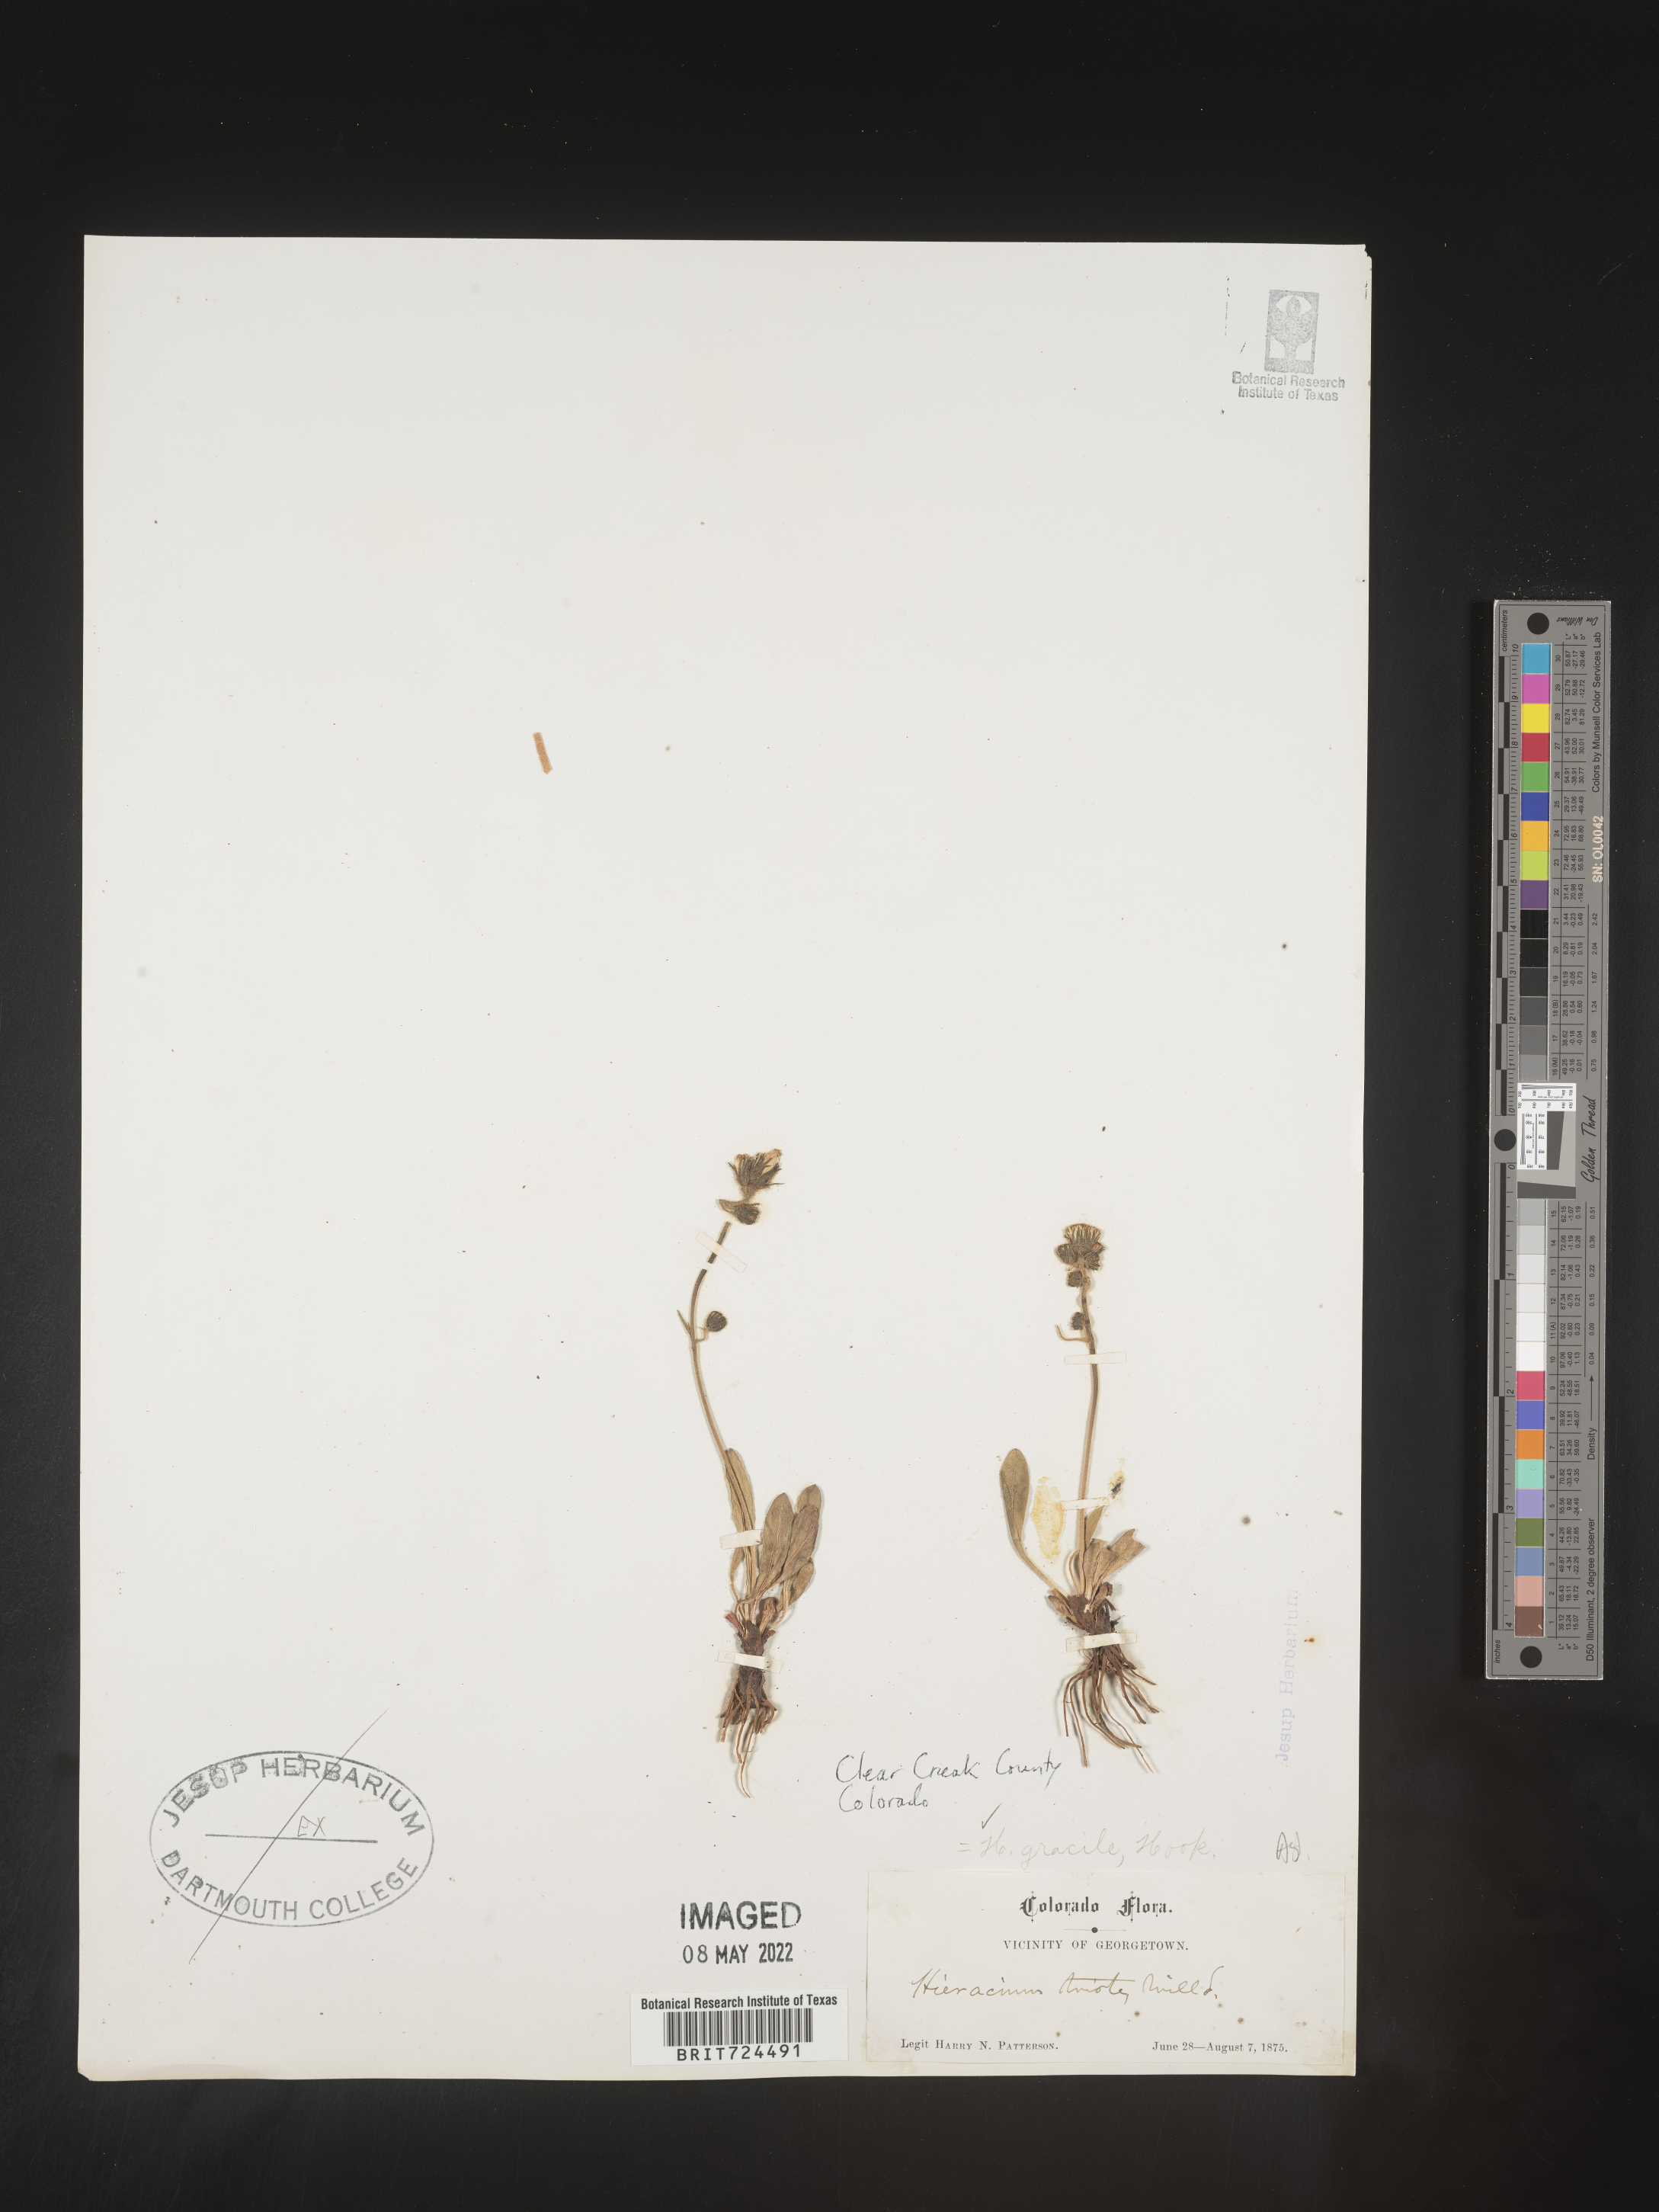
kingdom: Plantae
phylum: Tracheophyta
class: Magnoliopsida
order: Asterales
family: Asteraceae
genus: Hieracium
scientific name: Hieracium
